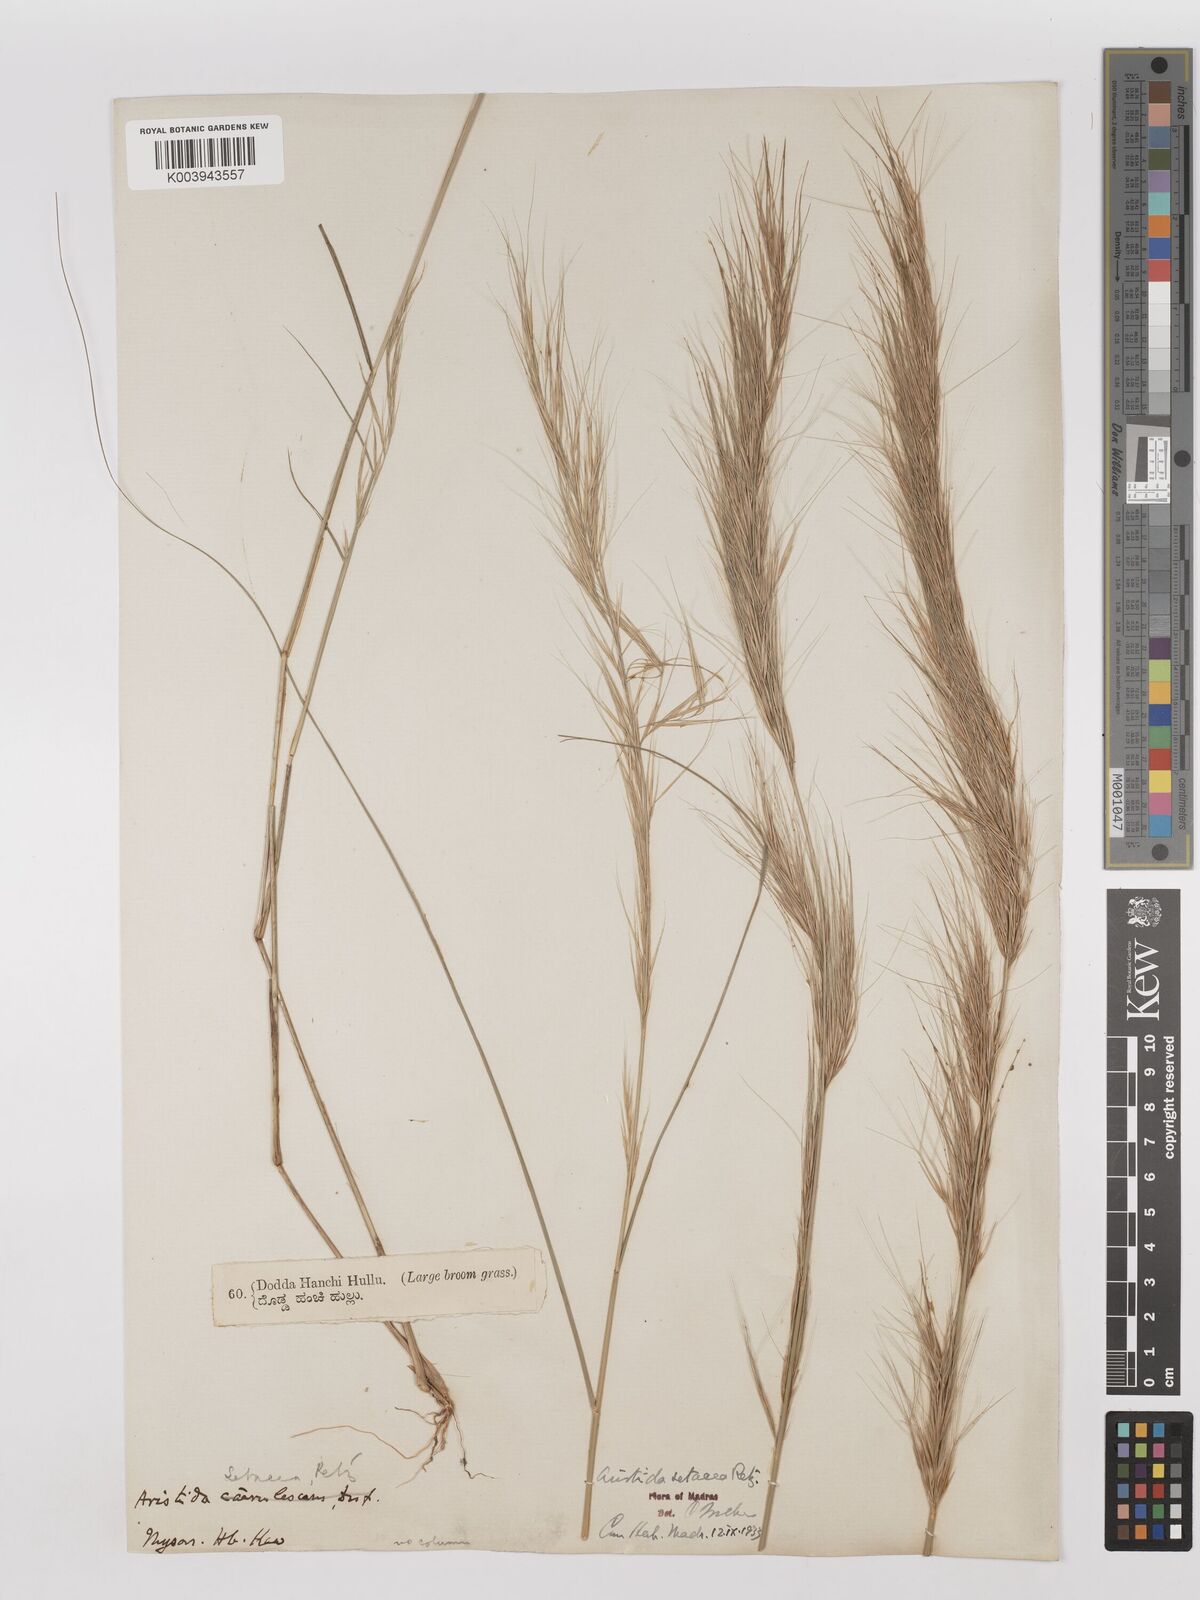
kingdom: Plantae
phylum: Tracheophyta
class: Liliopsida
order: Poales
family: Poaceae
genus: Aristida
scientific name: Aristida setacea
